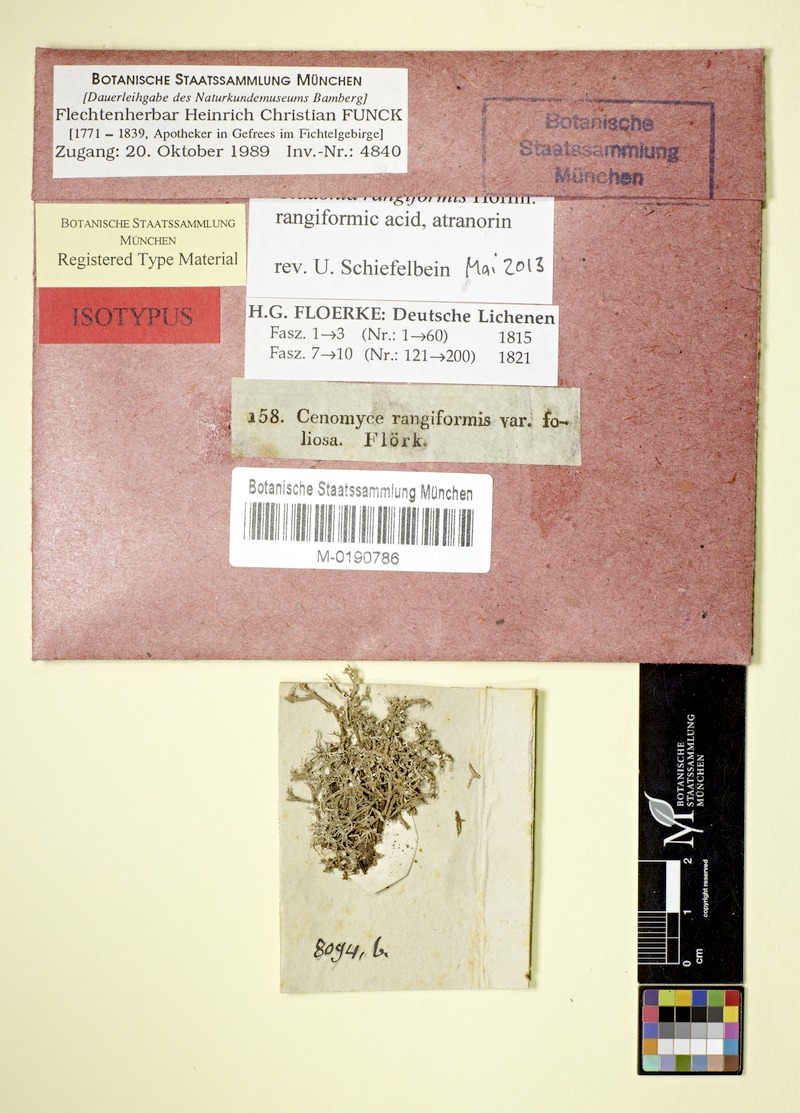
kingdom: Fungi
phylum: Ascomycota
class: Lecanoromycetes
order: Lecanorales
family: Cladoniaceae
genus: Cladonia
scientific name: Cladonia rangiformis
